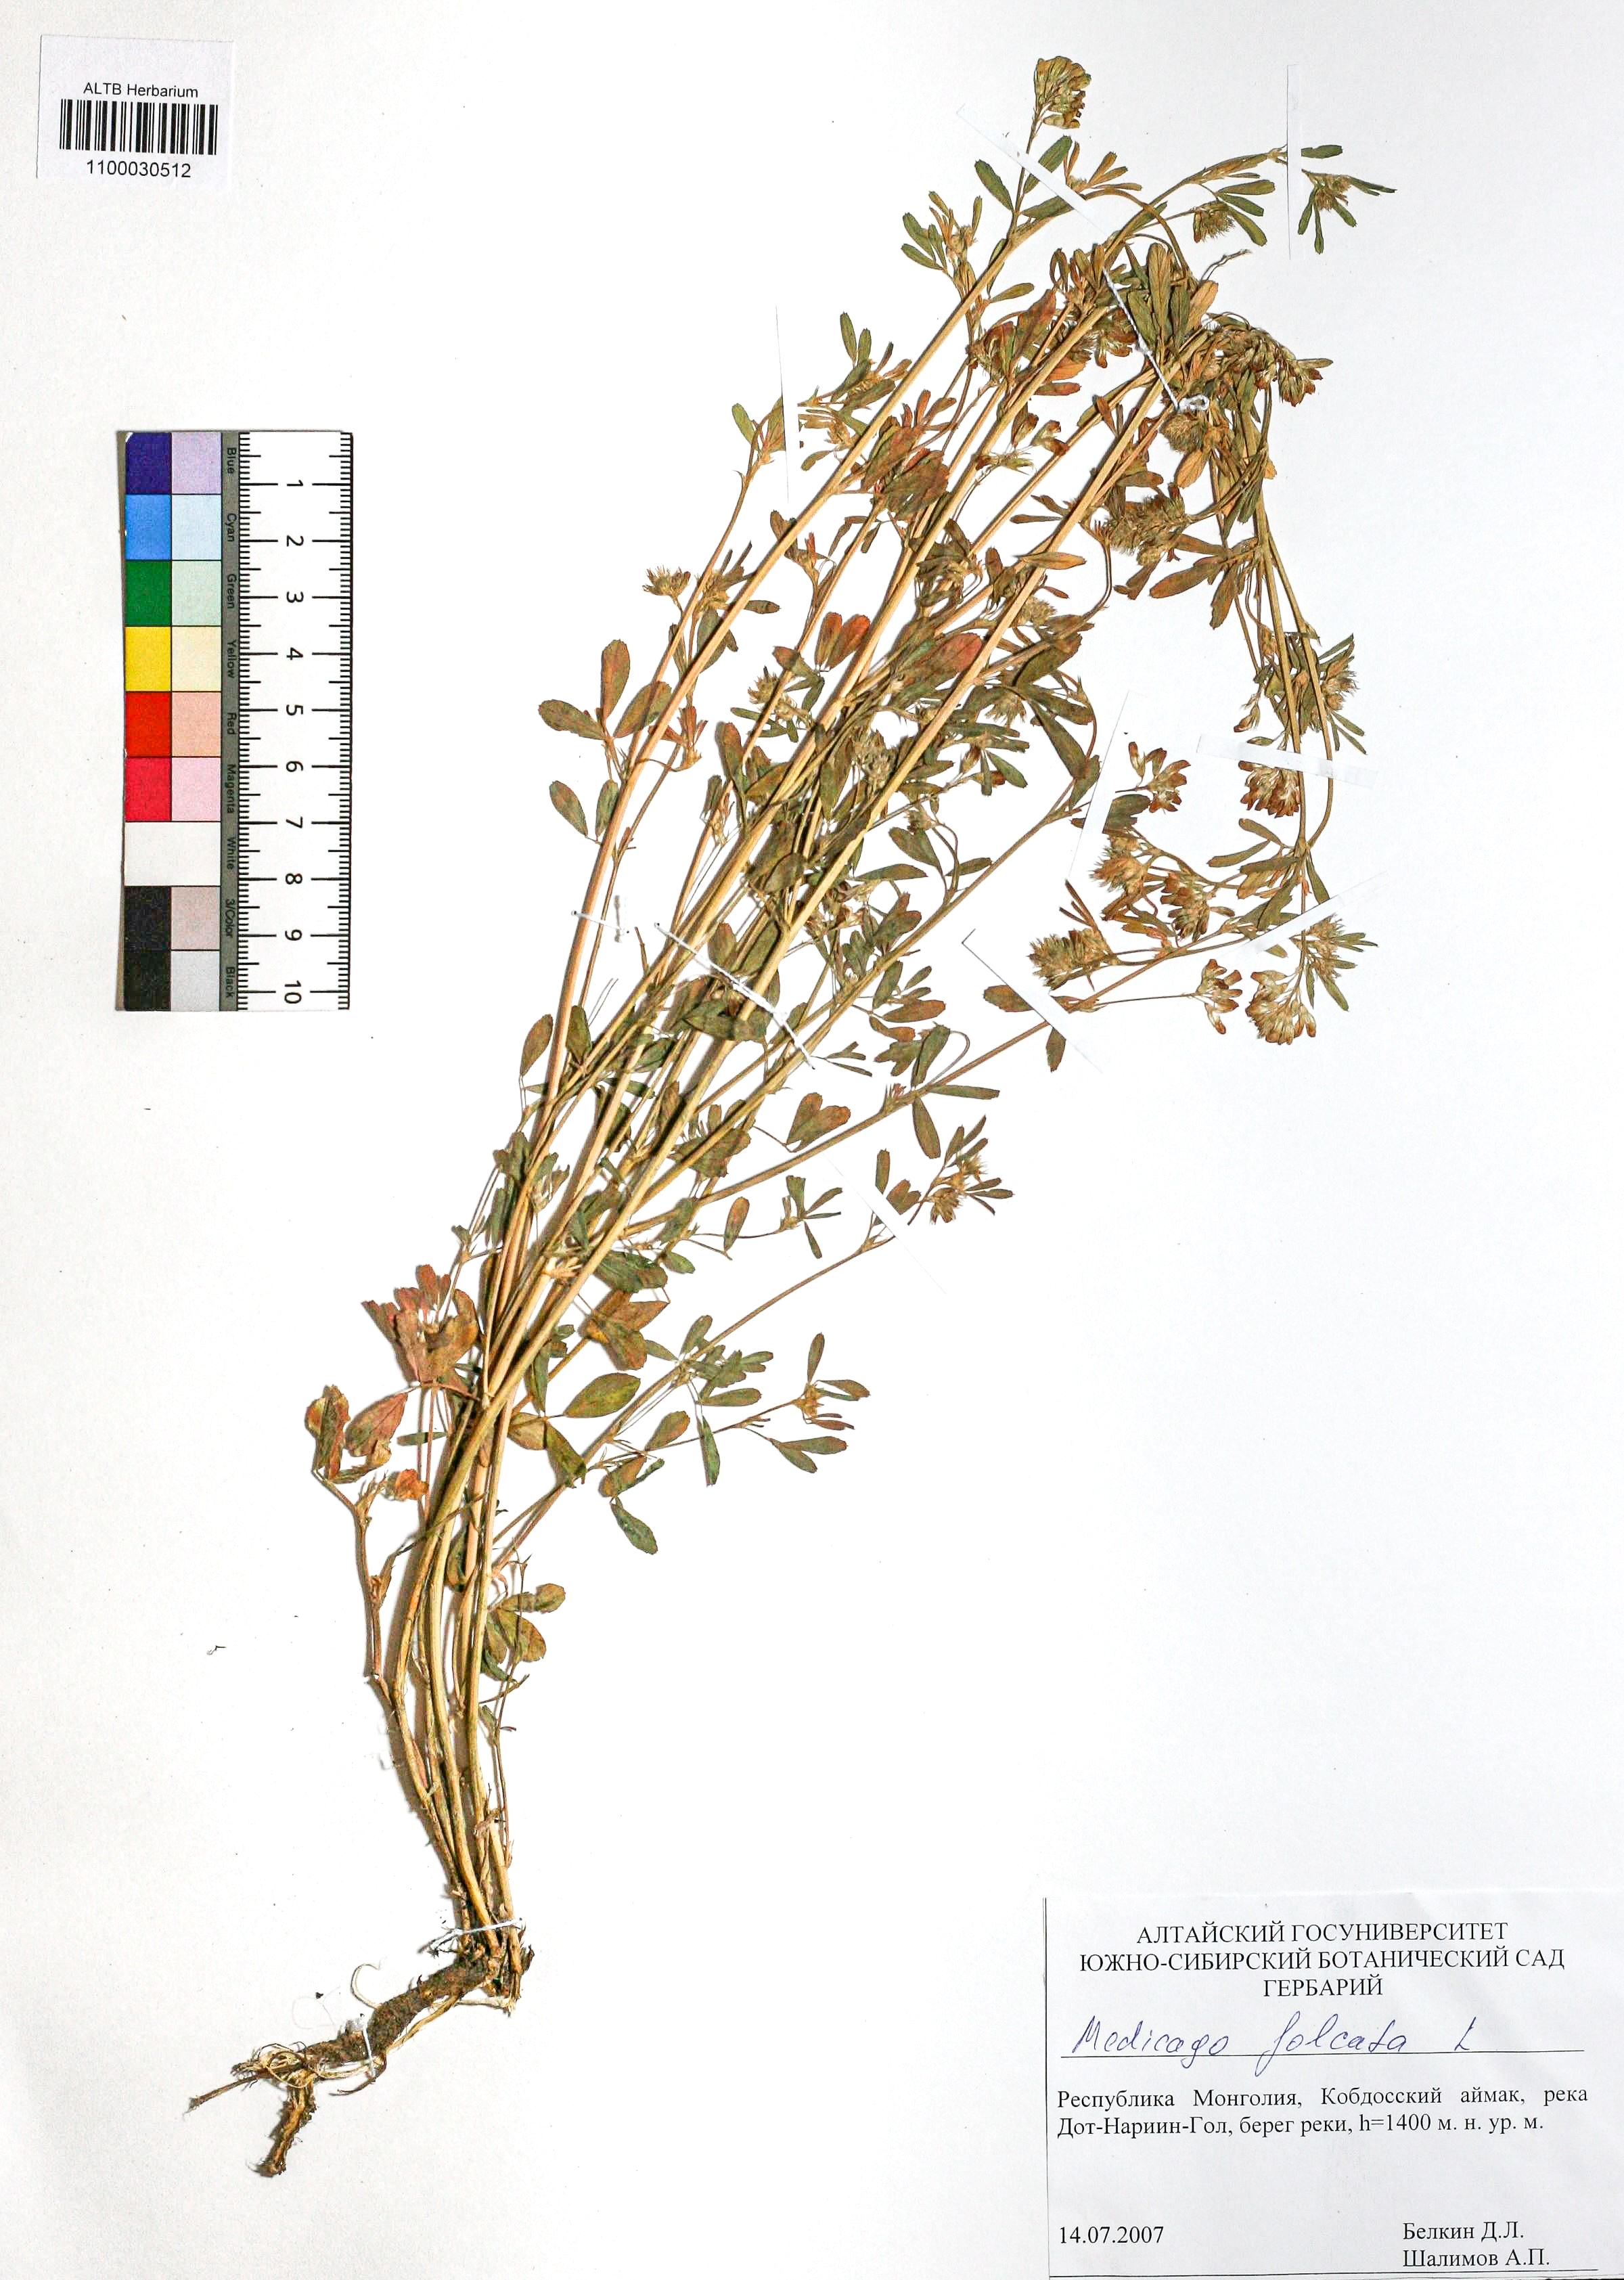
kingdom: Plantae
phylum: Tracheophyta
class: Magnoliopsida
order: Fabales
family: Fabaceae
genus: Medicago
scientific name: Medicago falcata
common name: Sickle medick
